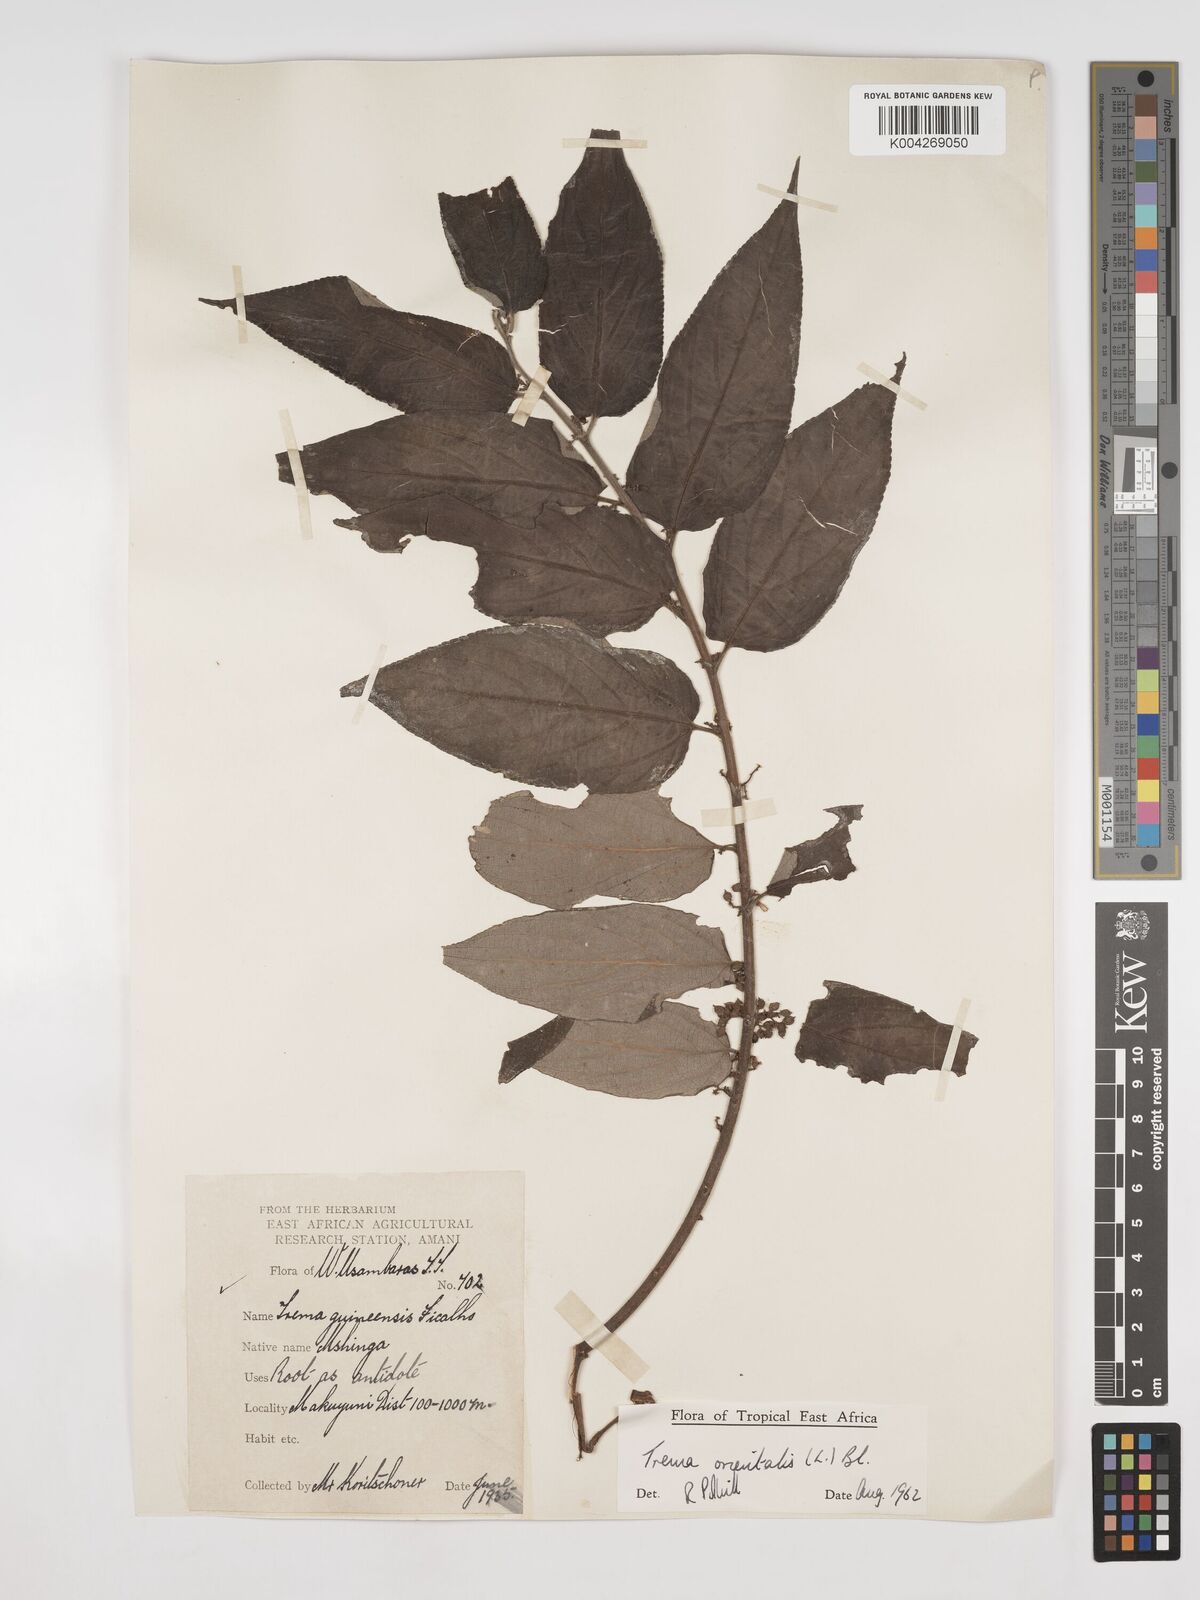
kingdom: Plantae
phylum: Tracheophyta
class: Magnoliopsida
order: Rosales
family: Cannabaceae
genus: Trema
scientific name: Trema orientale
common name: Indian charcoal tree
